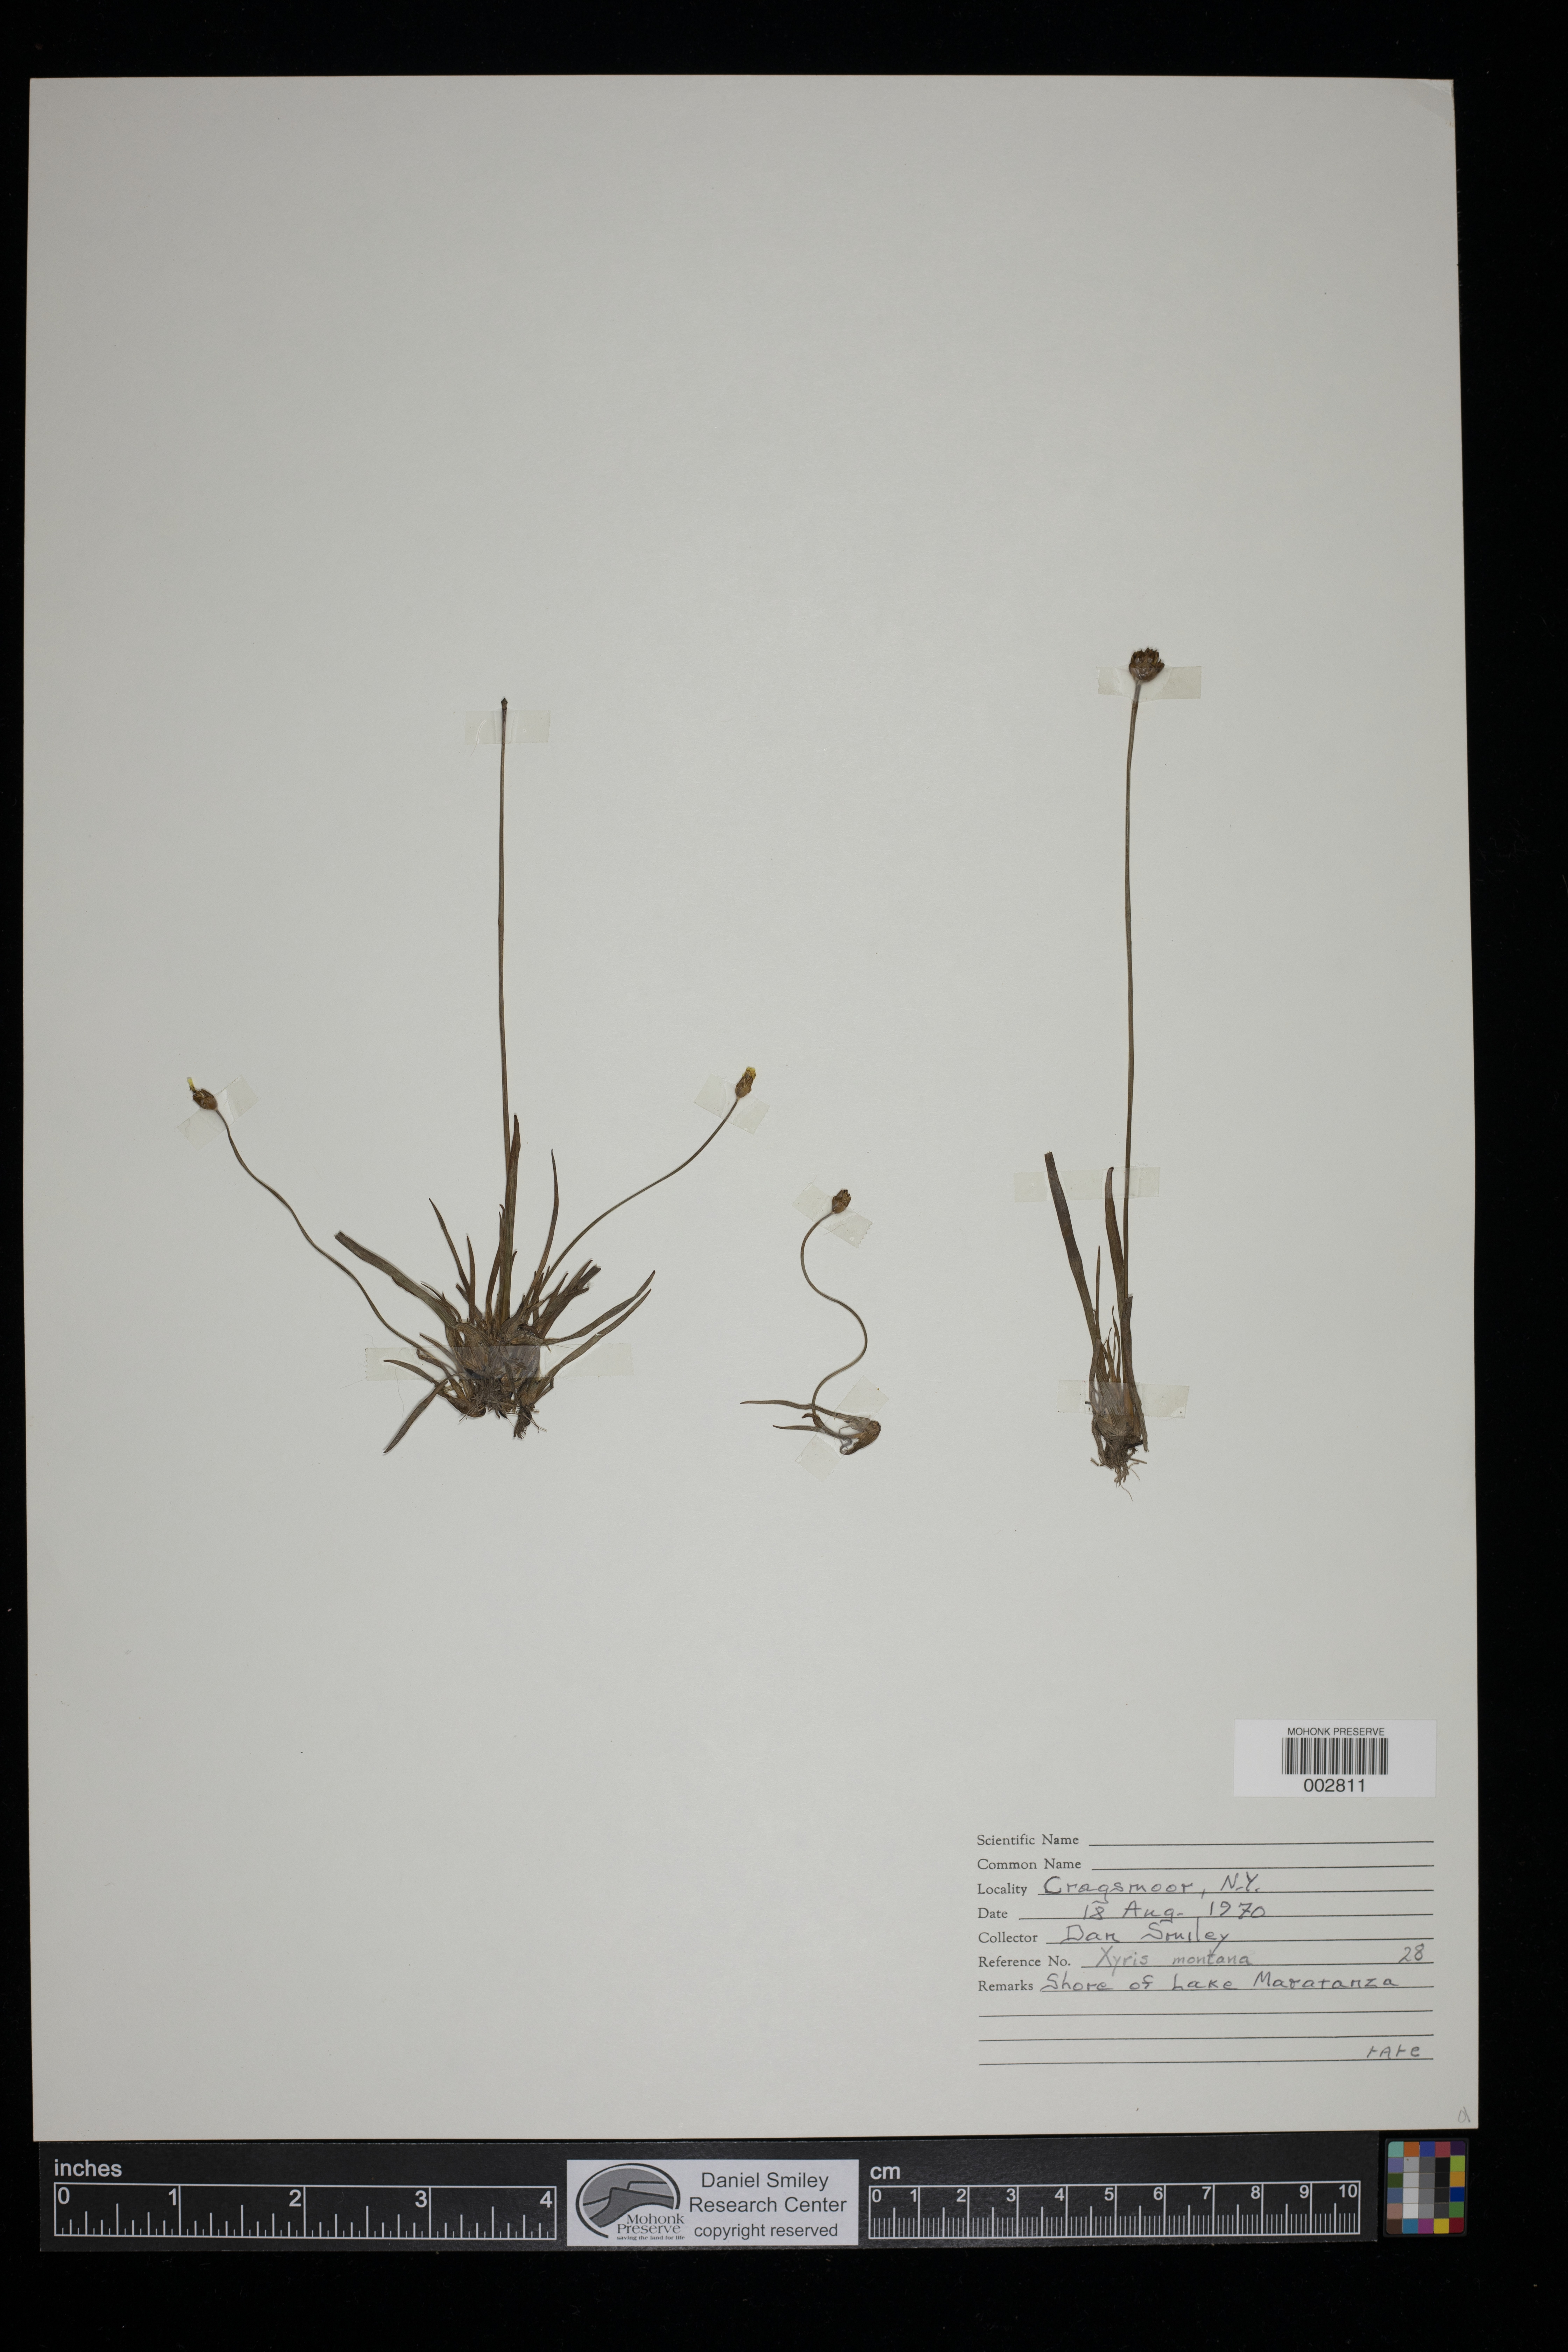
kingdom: Plantae
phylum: Tracheophyta
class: Liliopsida
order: Poales
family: Xyridaceae
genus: Xyris
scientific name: Xyris montana
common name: Northern yellow-eyed-grass
